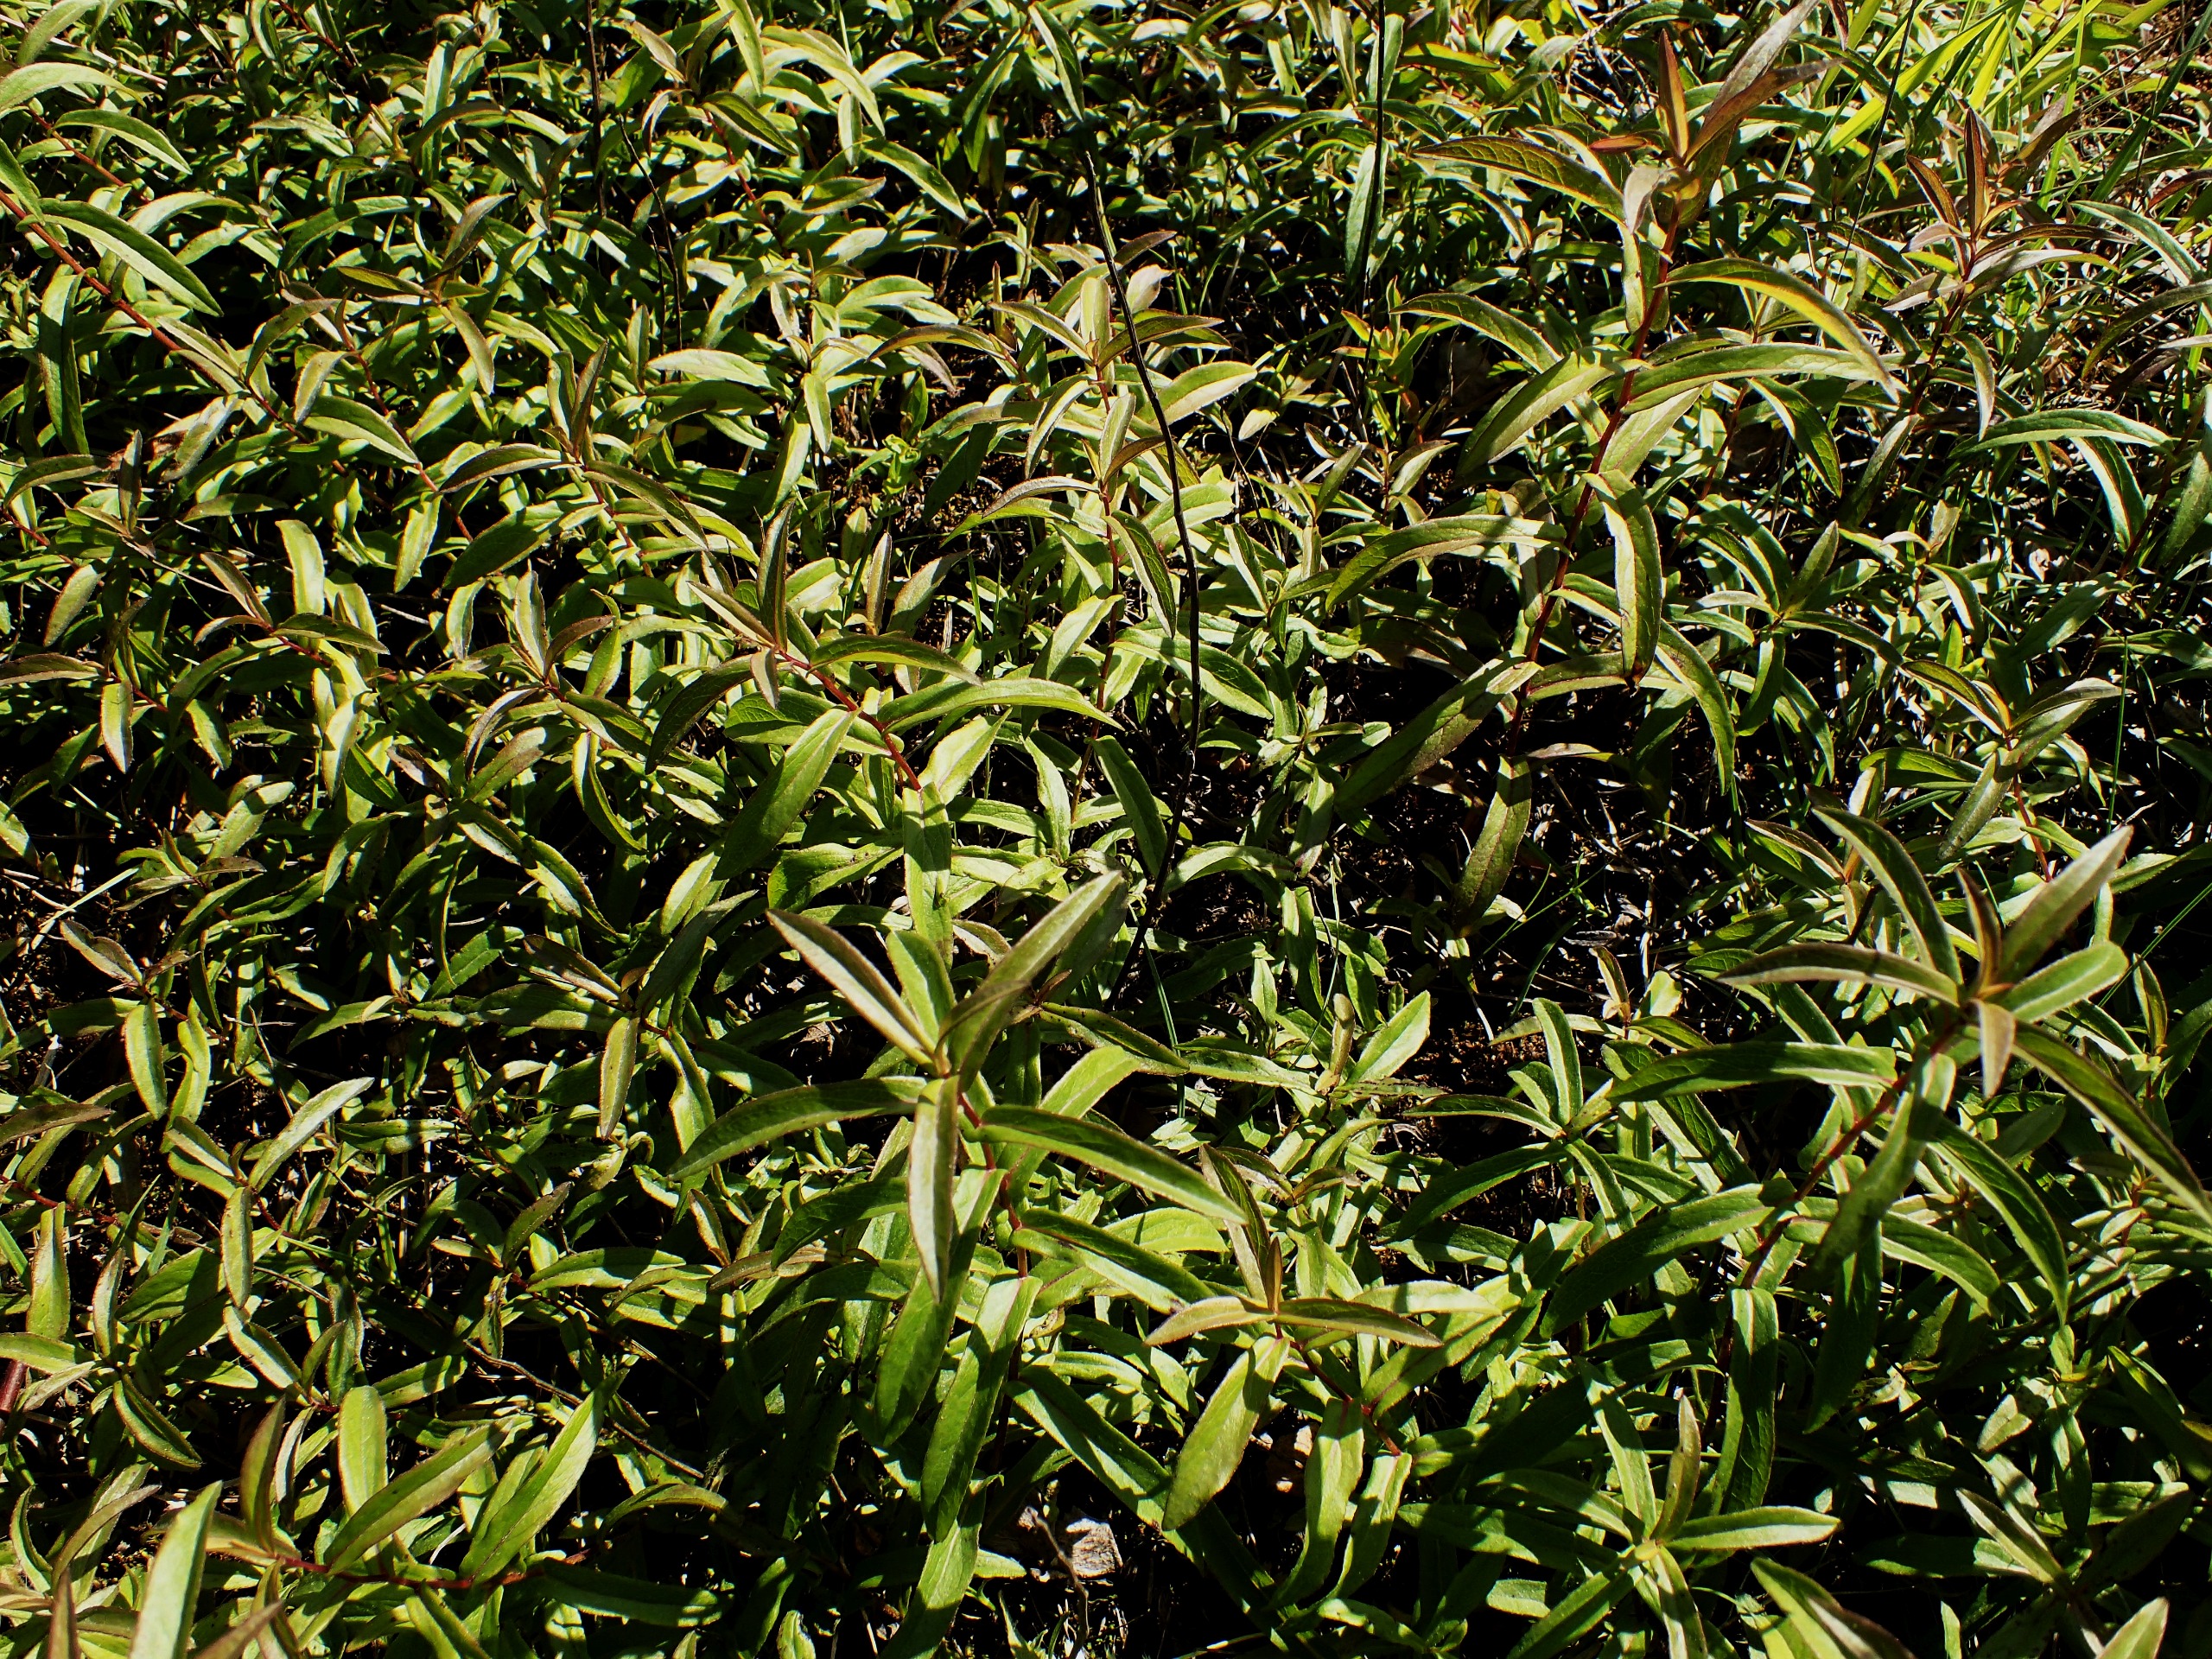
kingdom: Plantae
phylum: Tracheophyta
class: Magnoliopsida
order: Asterales
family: Asteraceae
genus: Pentanema
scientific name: Pentanema salicinum
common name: Pile-alant
